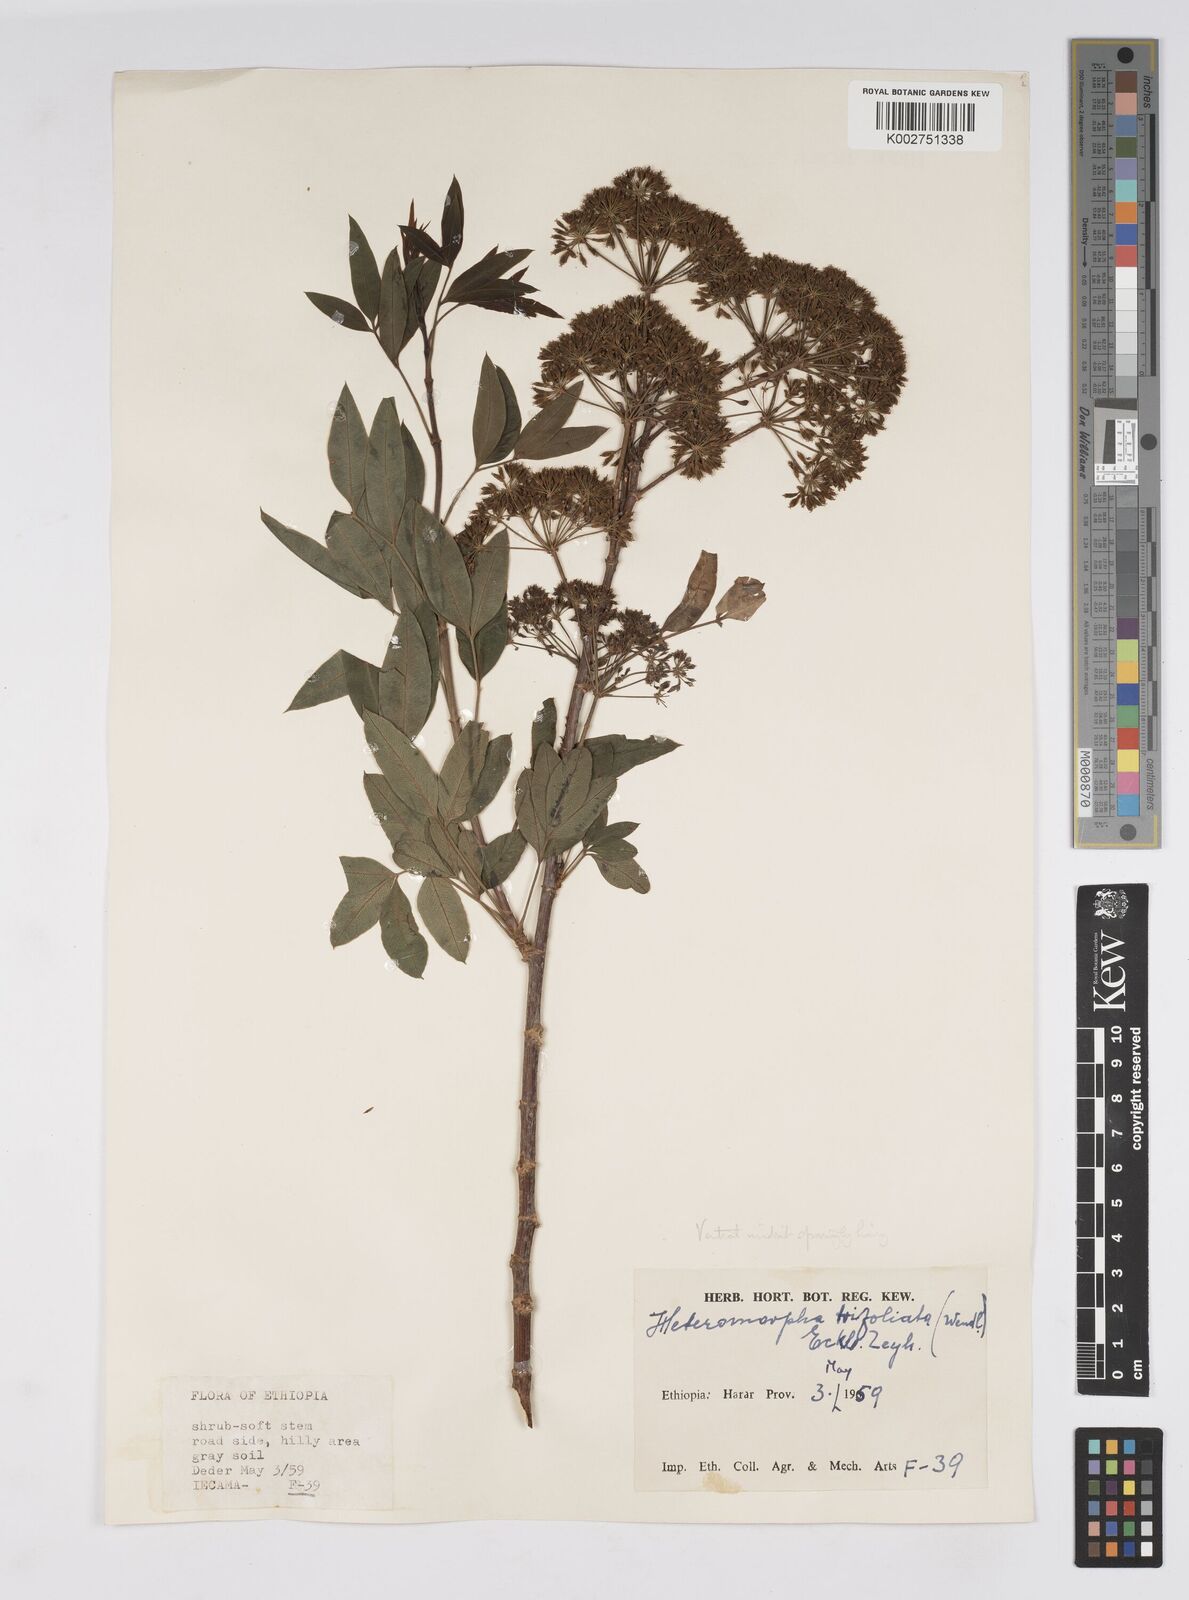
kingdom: Plantae
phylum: Tracheophyta
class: Magnoliopsida
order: Apiales
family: Apiaceae
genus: Heteromorpha
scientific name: Heteromorpha
